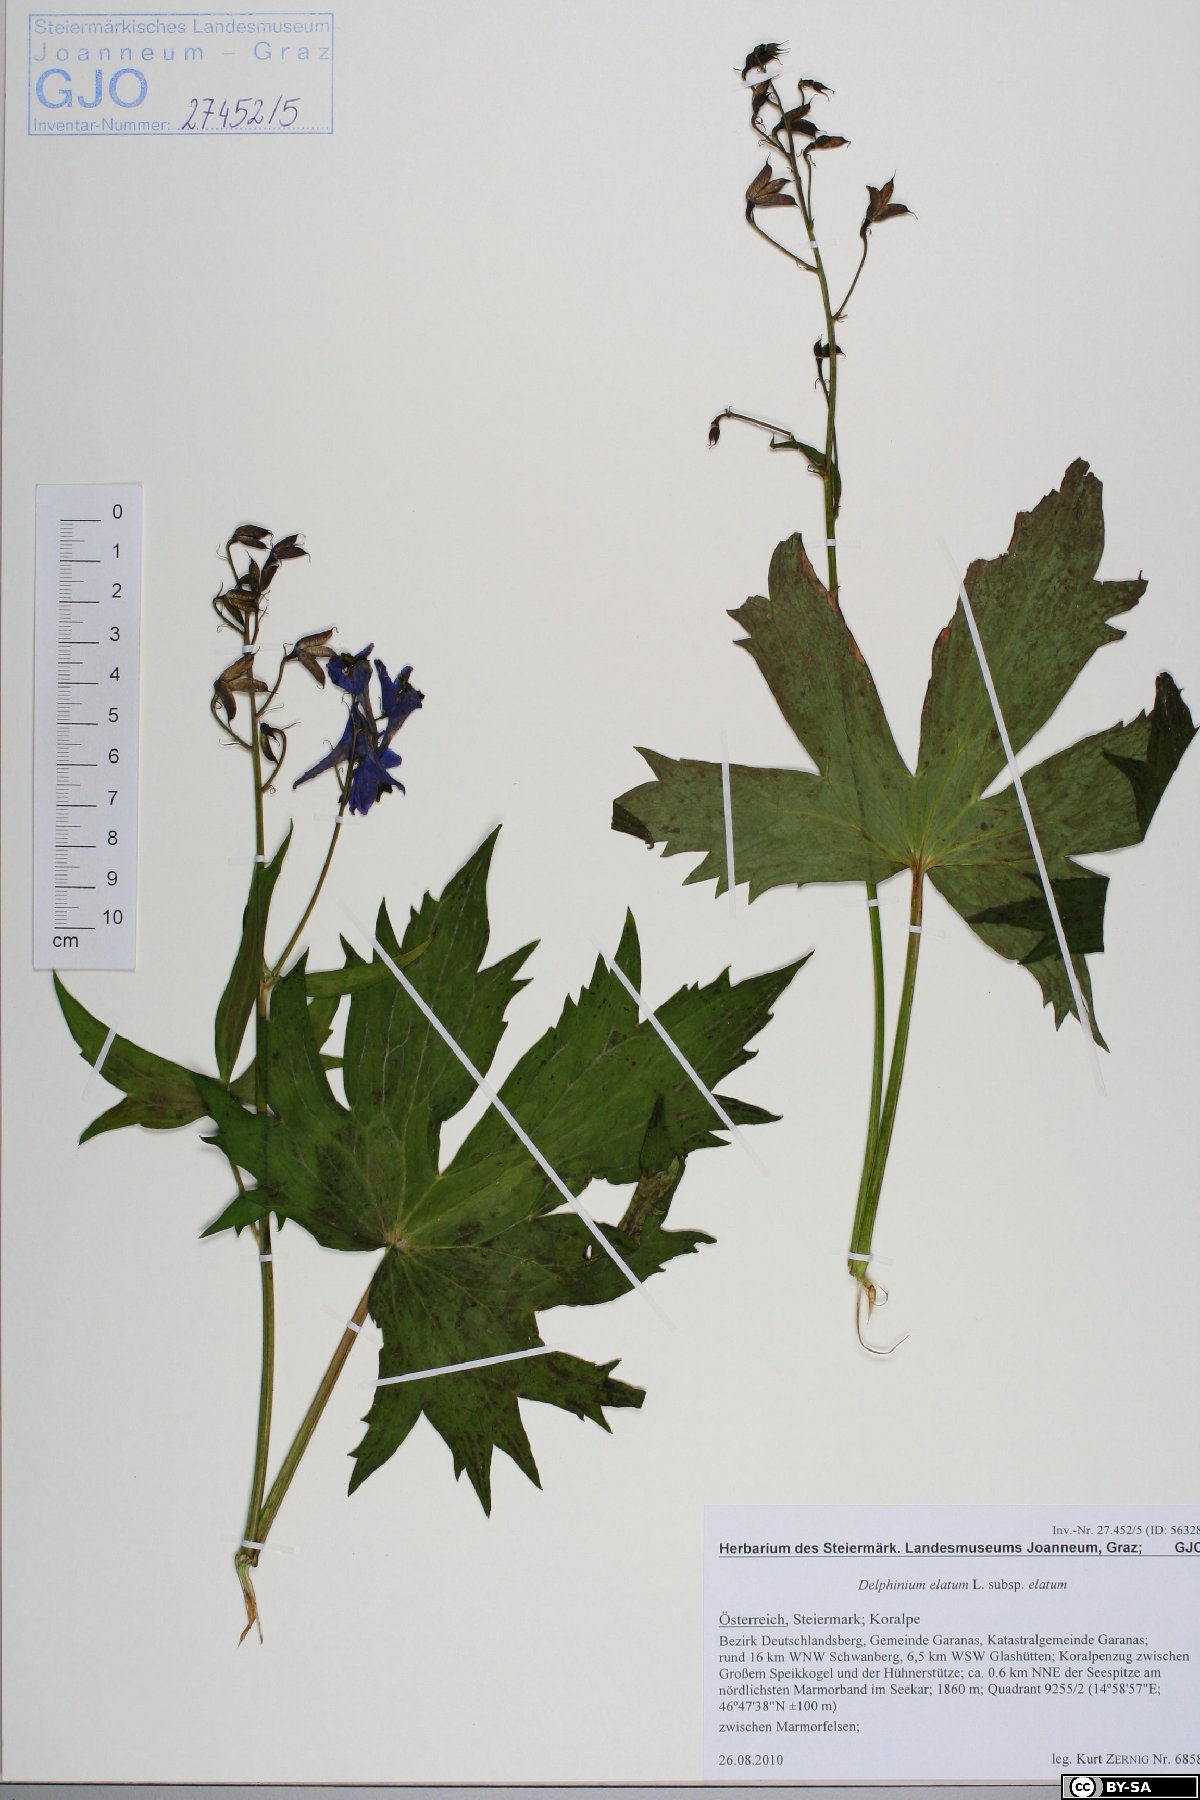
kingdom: Plantae
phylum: Tracheophyta
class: Magnoliopsida
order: Ranunculales
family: Ranunculaceae
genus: Delphinium
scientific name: Delphinium elatum
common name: Candle larkspur
